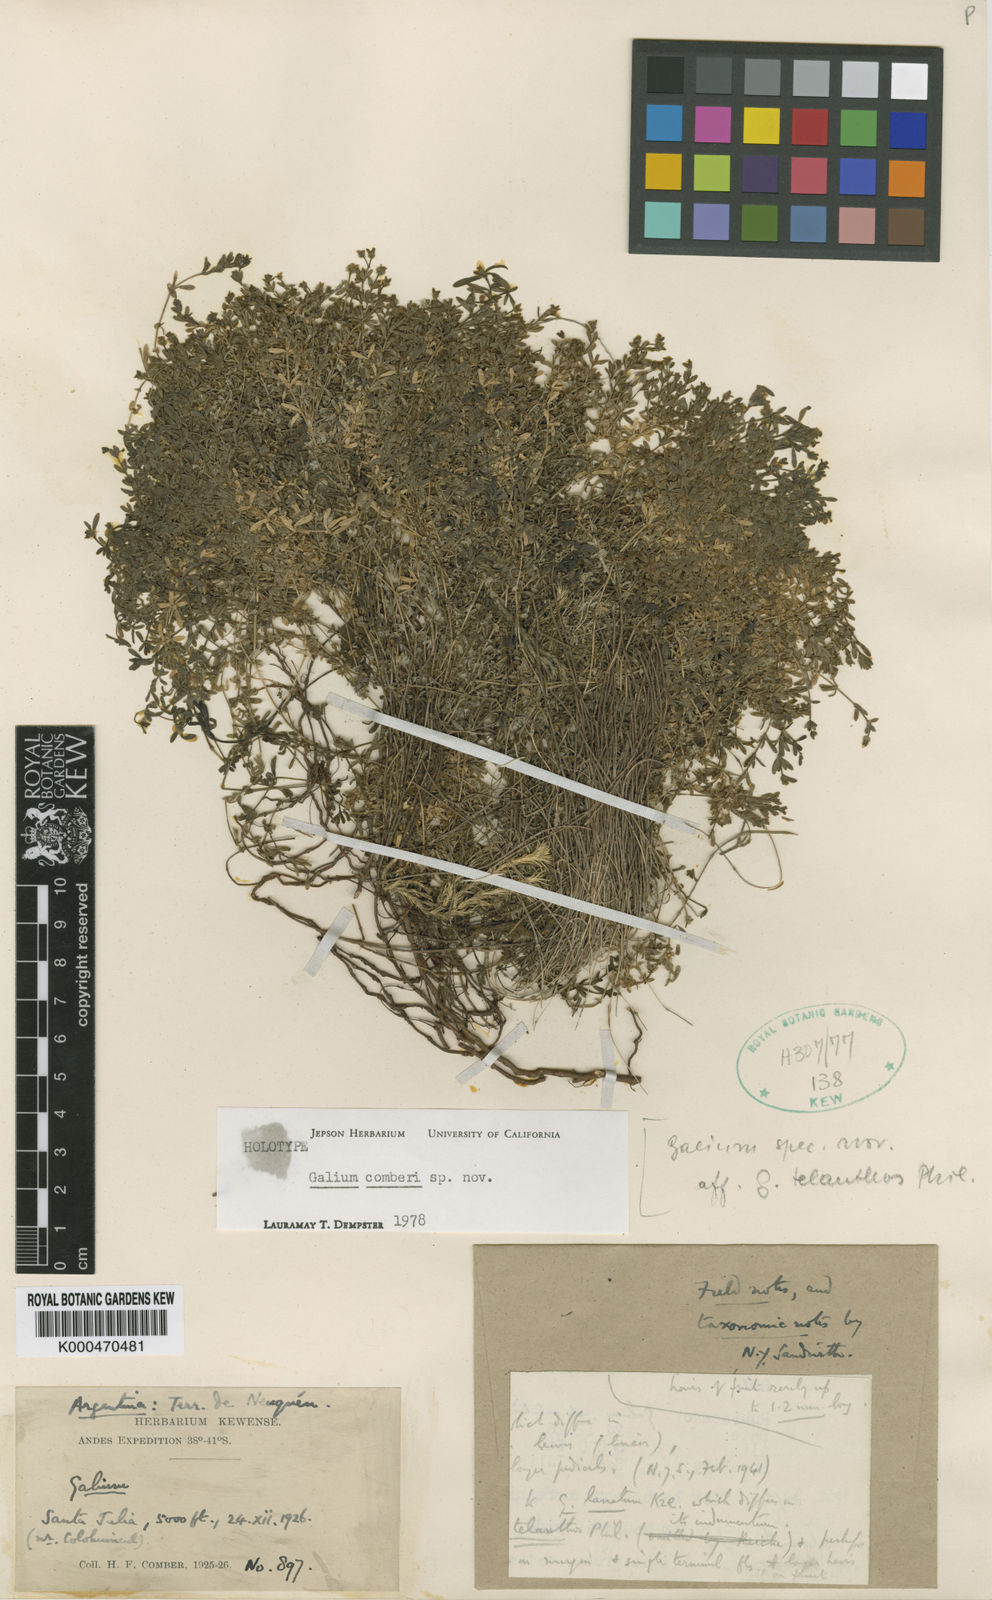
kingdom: Plantae
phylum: Tracheophyta
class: Magnoliopsida
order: Gentianales
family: Rubiaceae
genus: Galium
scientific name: Galium comberi
